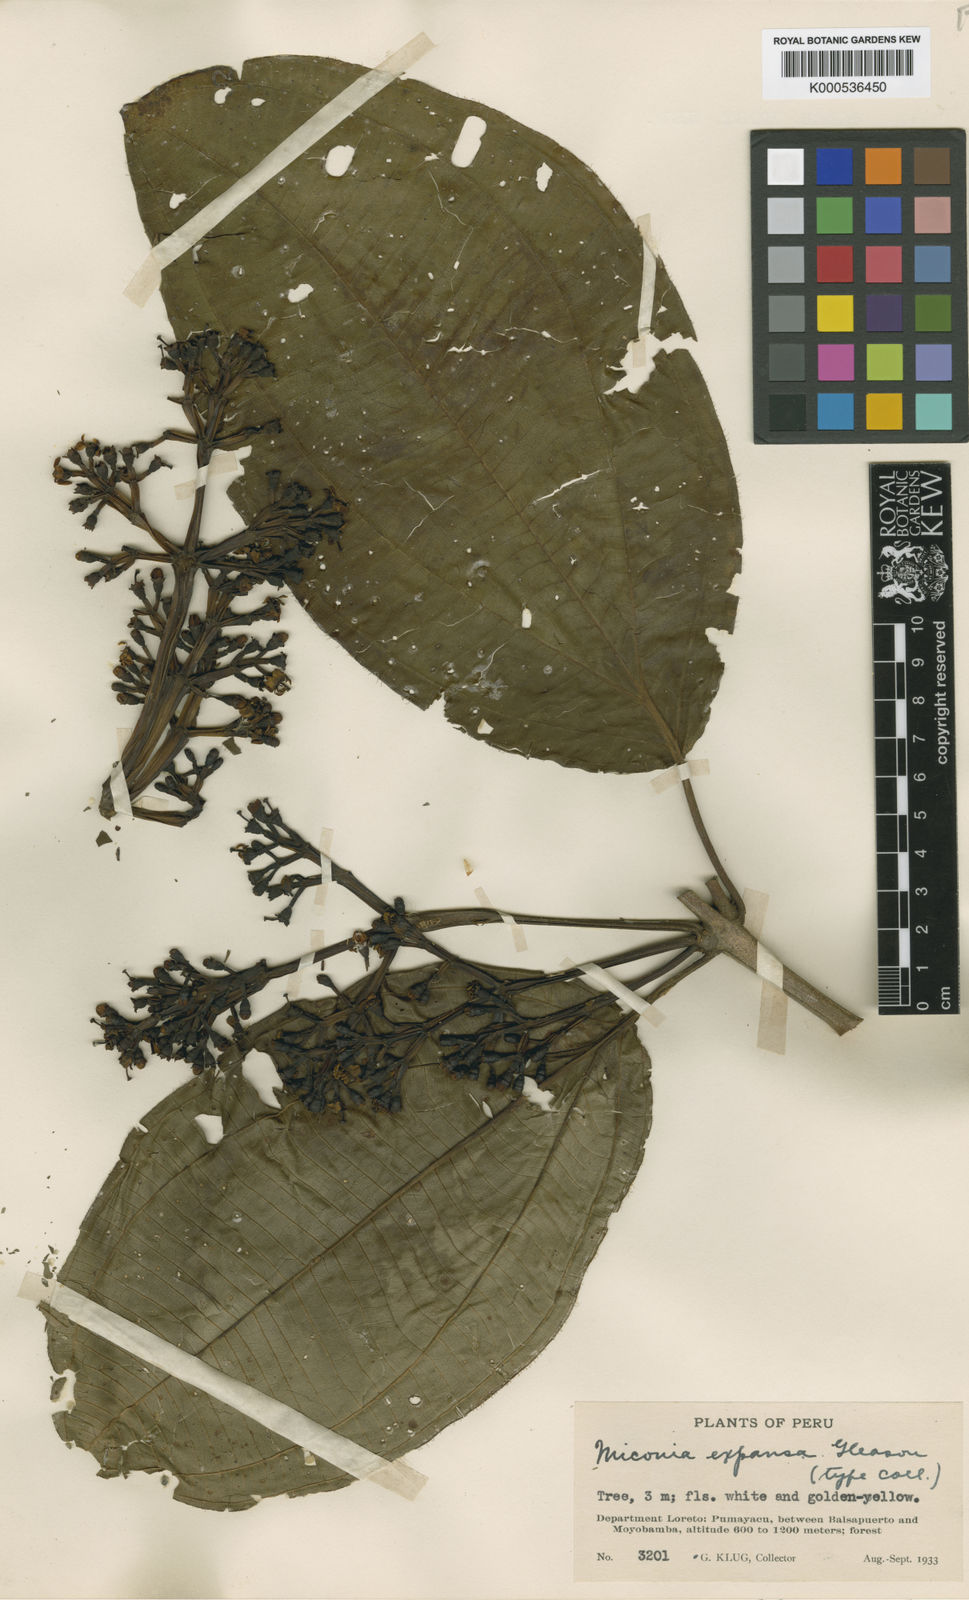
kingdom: Plantae
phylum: Tracheophyta
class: Magnoliopsida
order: Myrtales
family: Melastomataceae
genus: Miconia
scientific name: Miconia expansa
